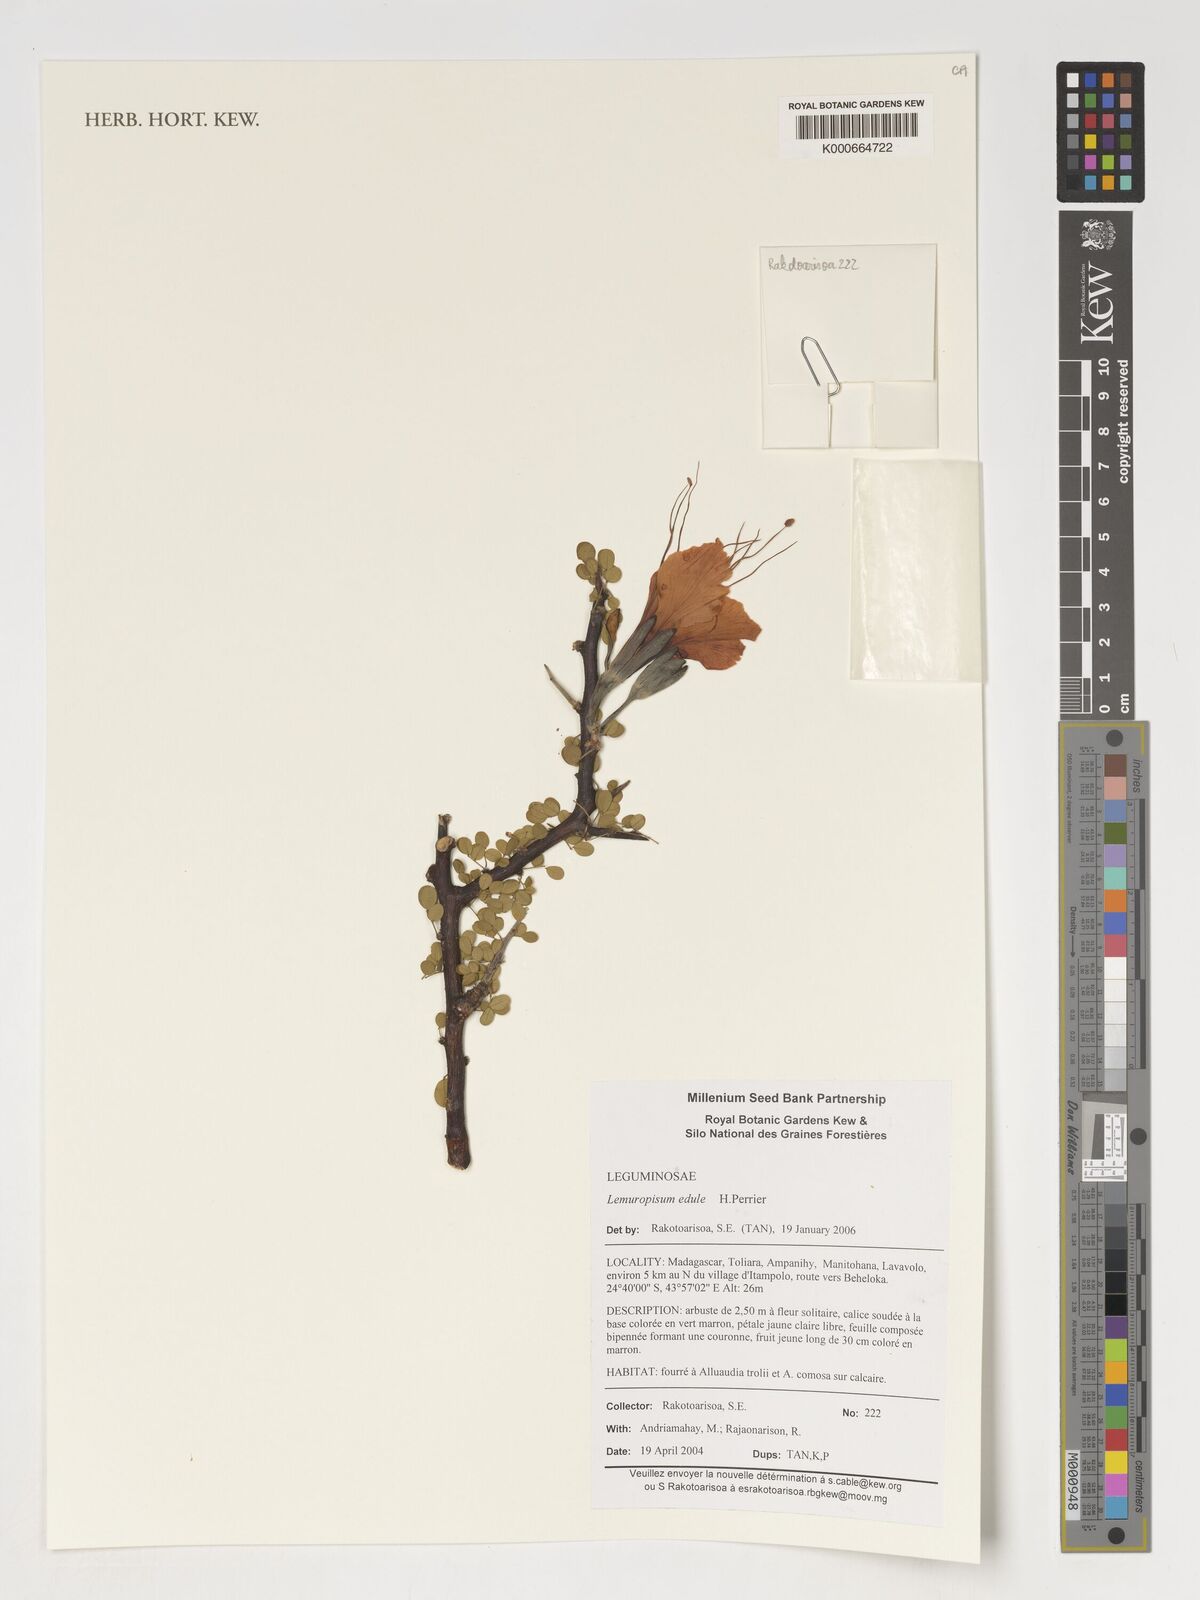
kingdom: Plantae
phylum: Tracheophyta
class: Magnoliopsida
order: Fabales
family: Fabaceae
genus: Delonix
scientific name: Delonix edule
